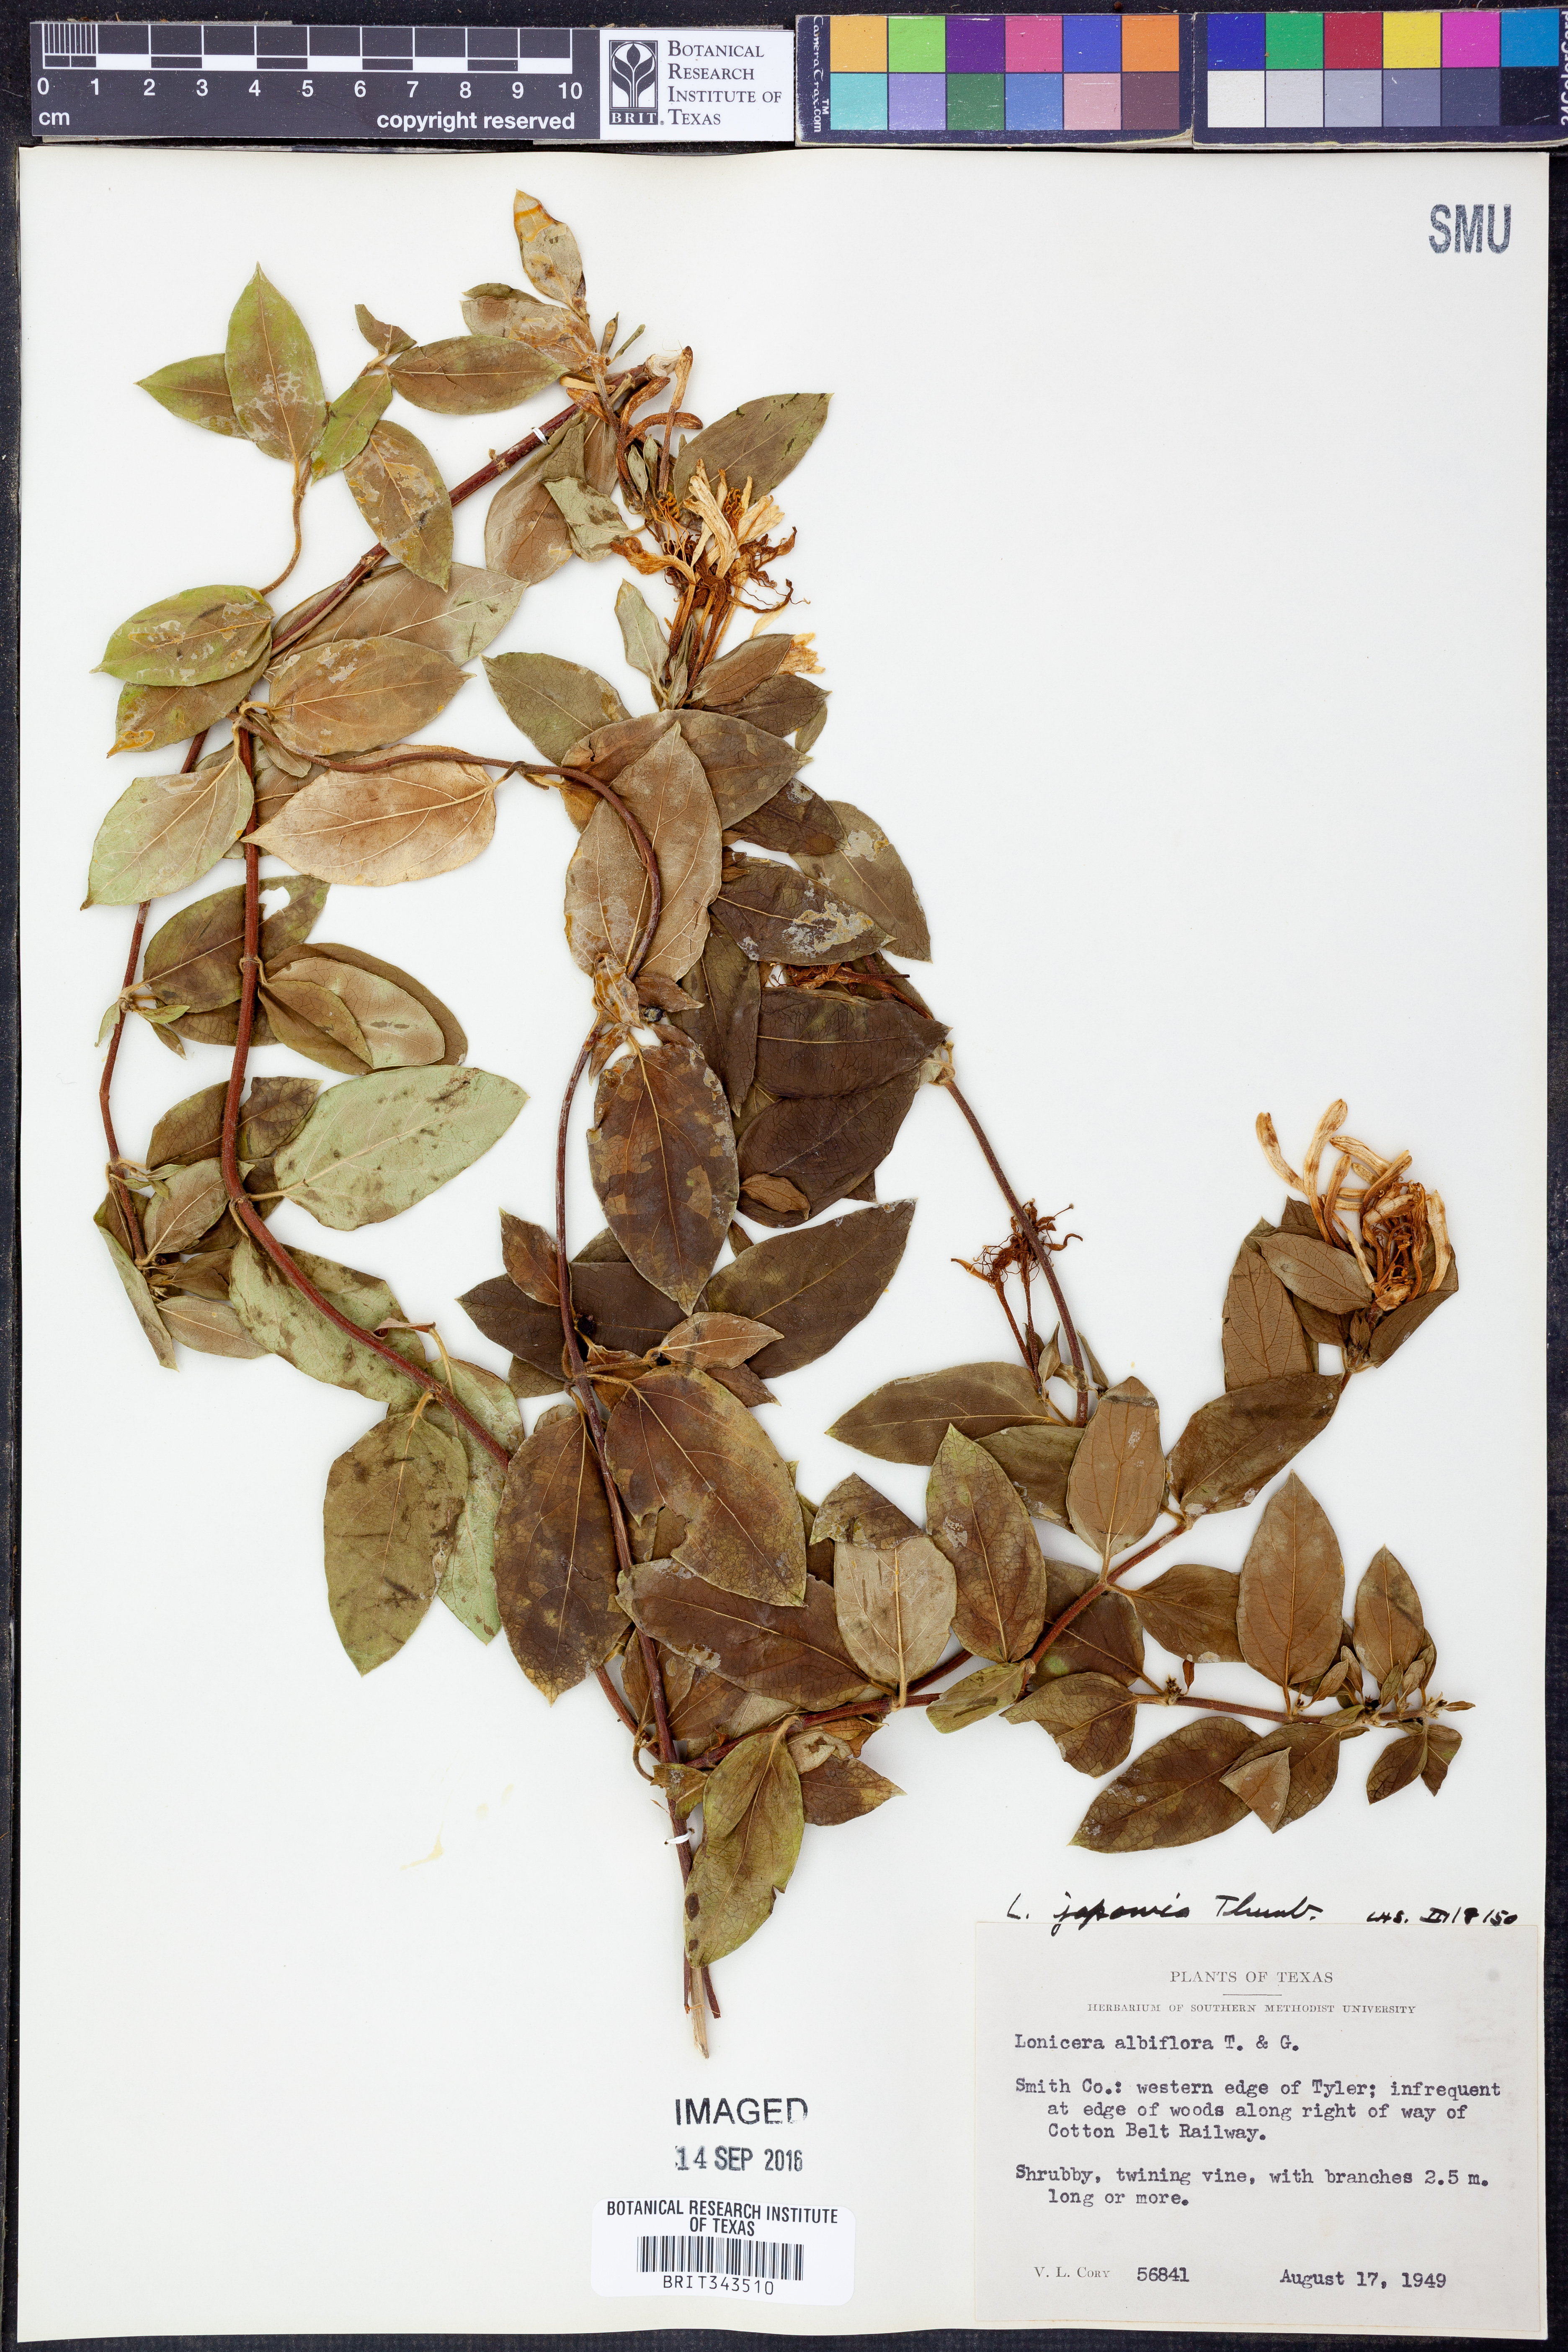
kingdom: Plantae
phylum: Tracheophyta
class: Magnoliopsida
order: Dipsacales
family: Caprifoliaceae
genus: Lonicera
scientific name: Lonicera japonica
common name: Japanese honeysuckle
